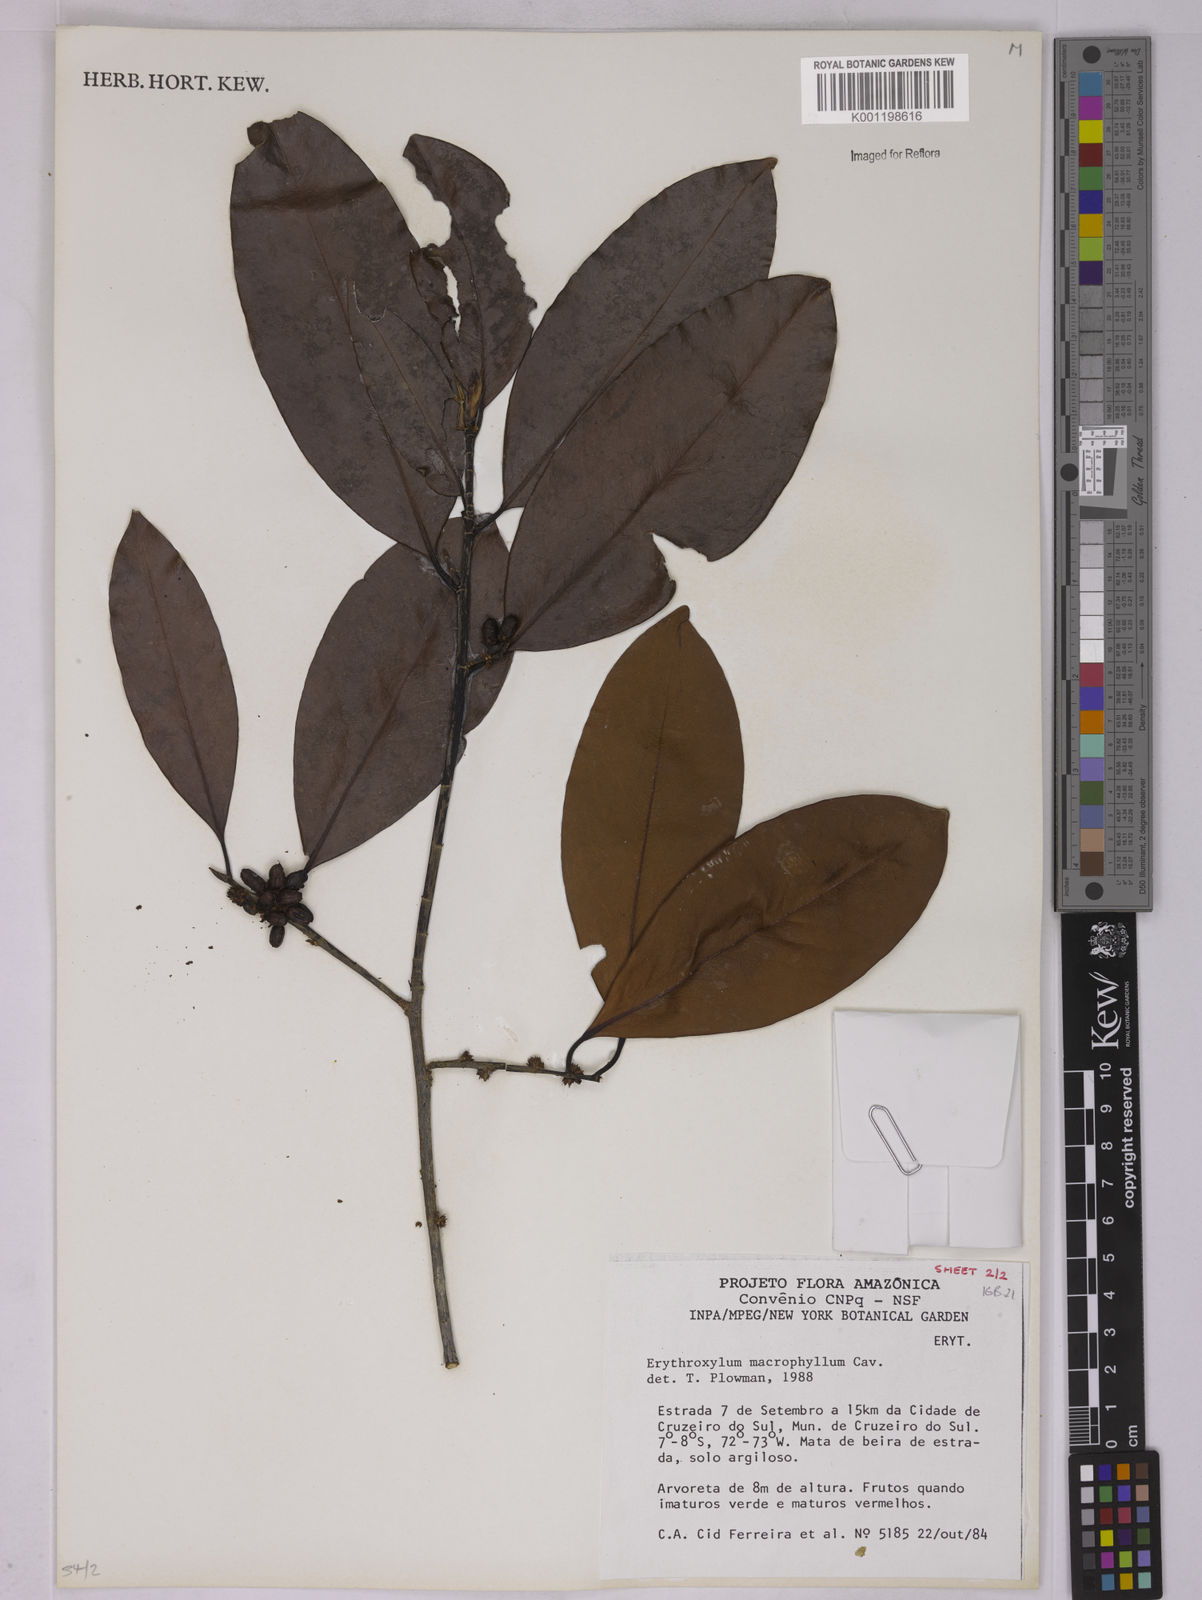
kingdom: Plantae
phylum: Tracheophyta
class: Magnoliopsida
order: Malpighiales
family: Erythroxylaceae
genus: Erythroxylum
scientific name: Erythroxylum macrophyllum
